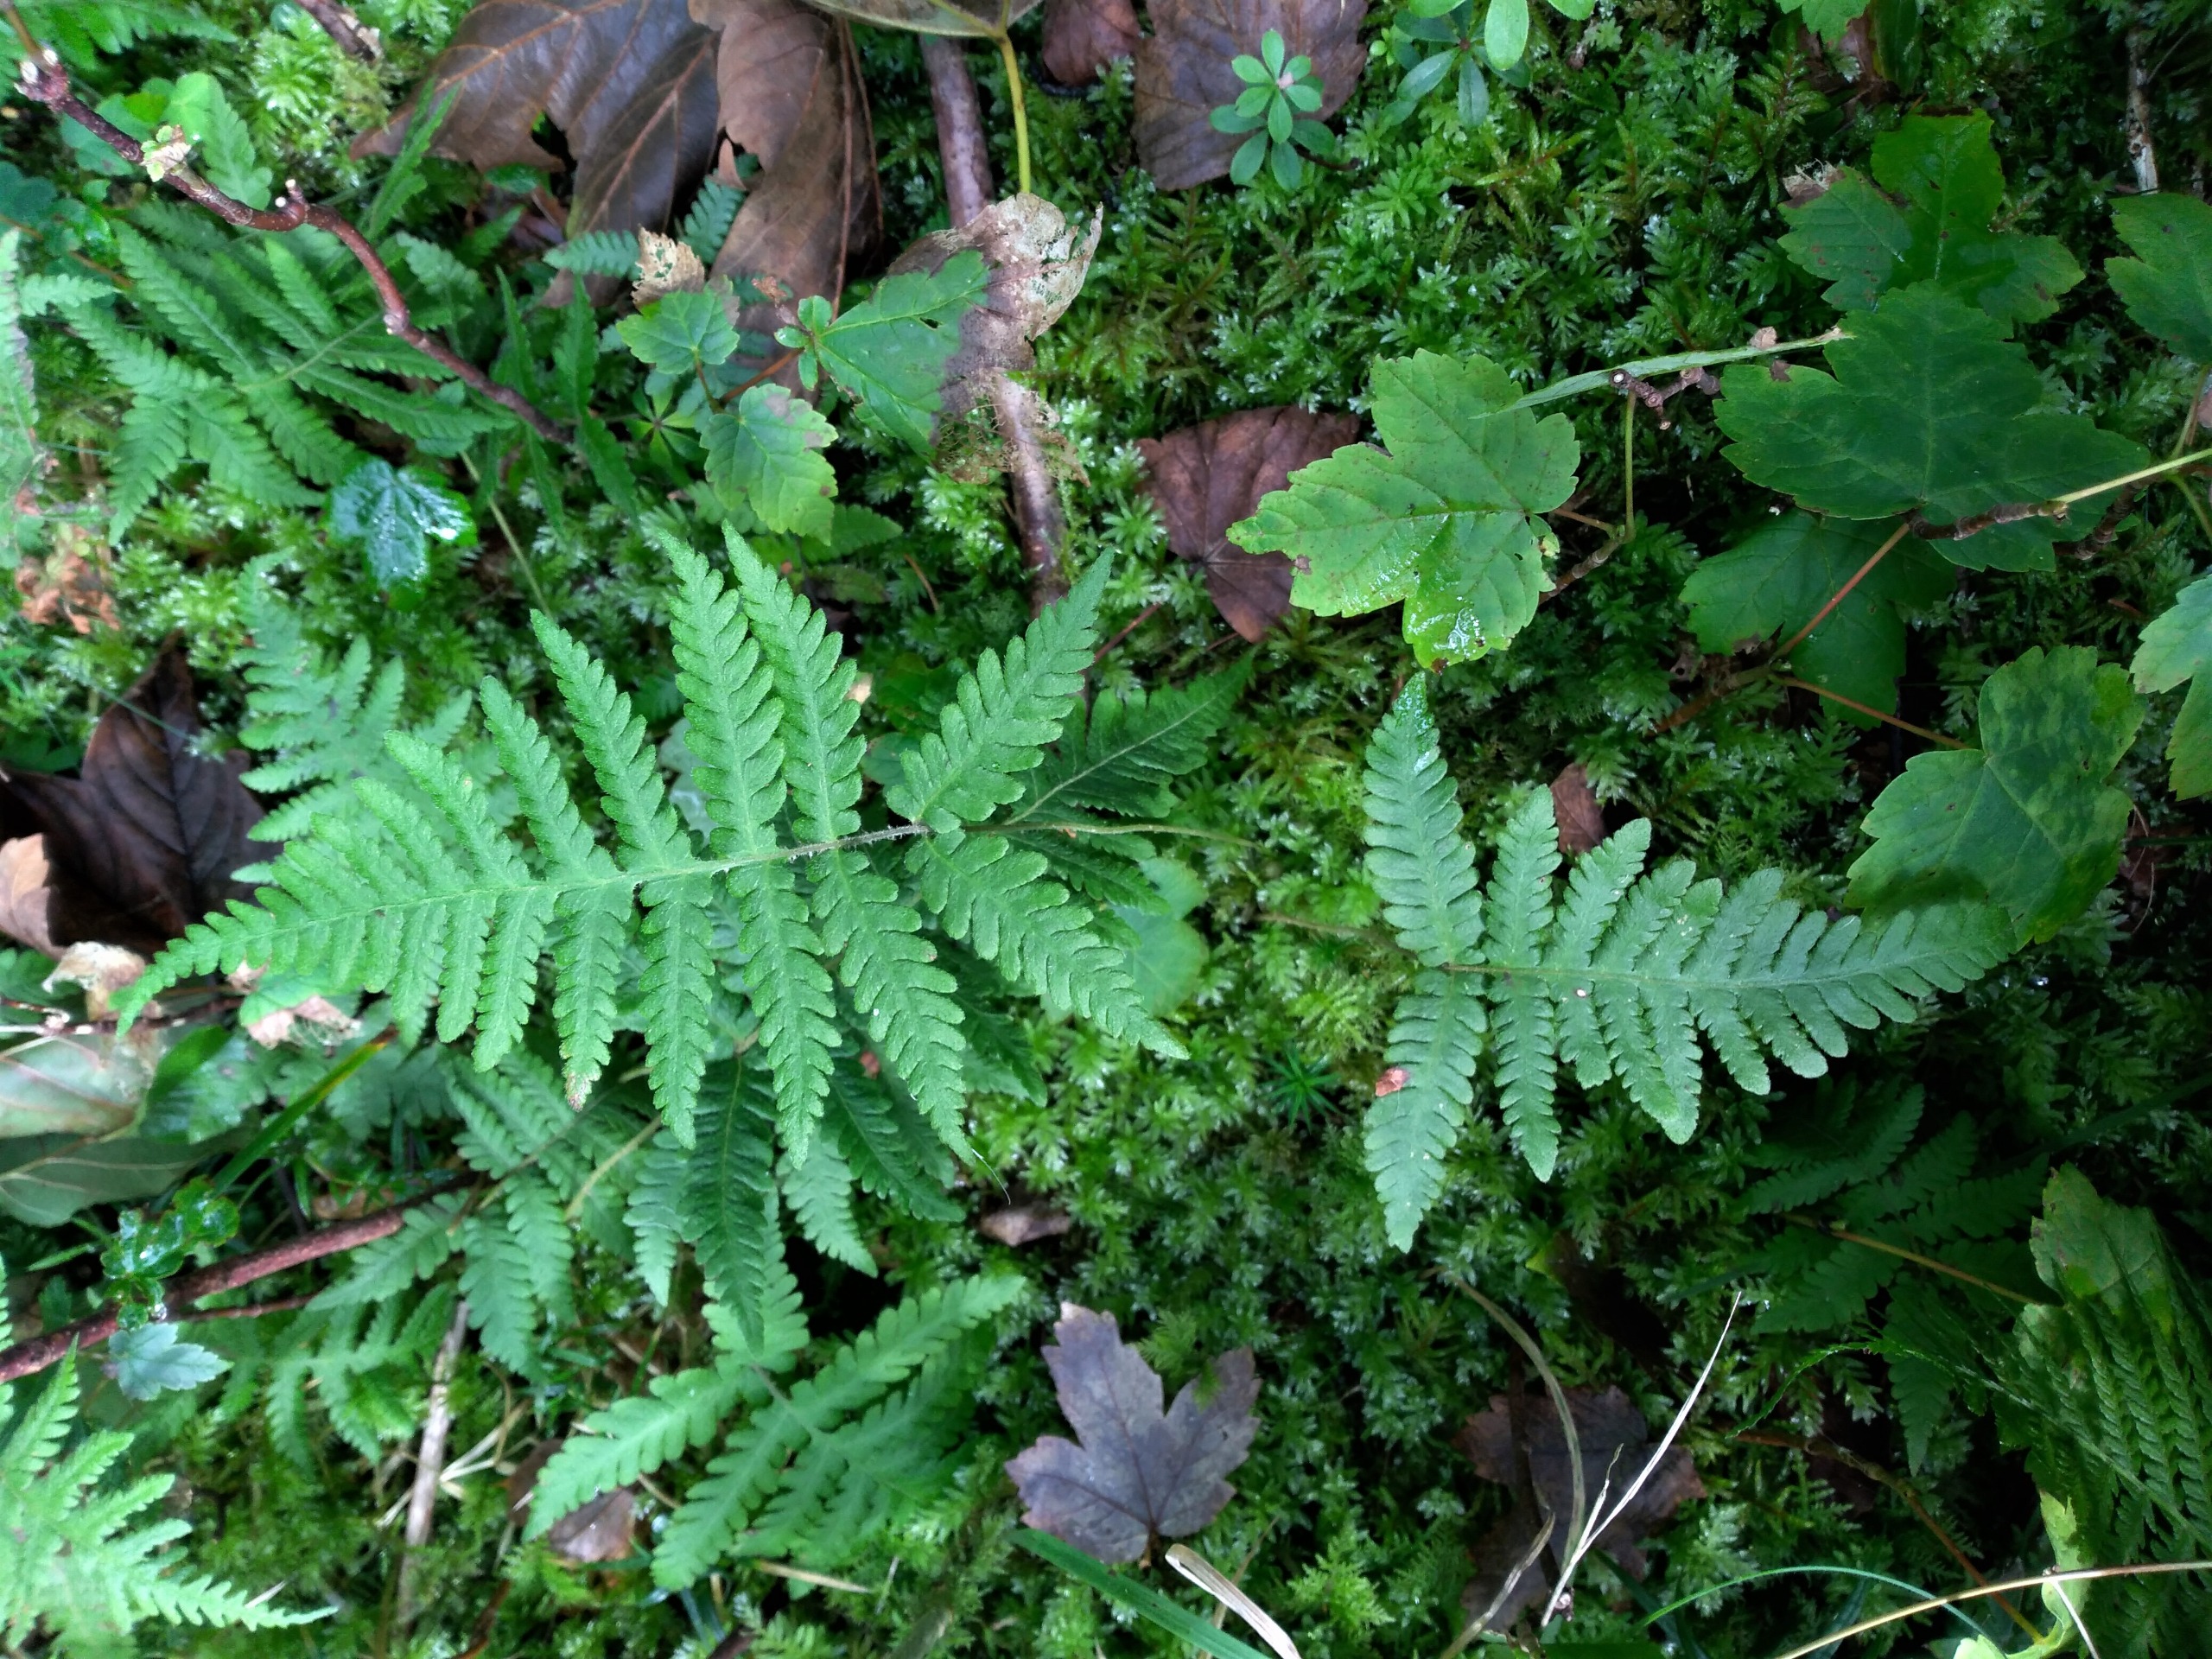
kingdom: Plantae
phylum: Tracheophyta
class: Polypodiopsida
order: Polypodiales
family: Thelypteridaceae
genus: Phegopteris
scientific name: Phegopteris connectilis
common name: Dunet egebregne
